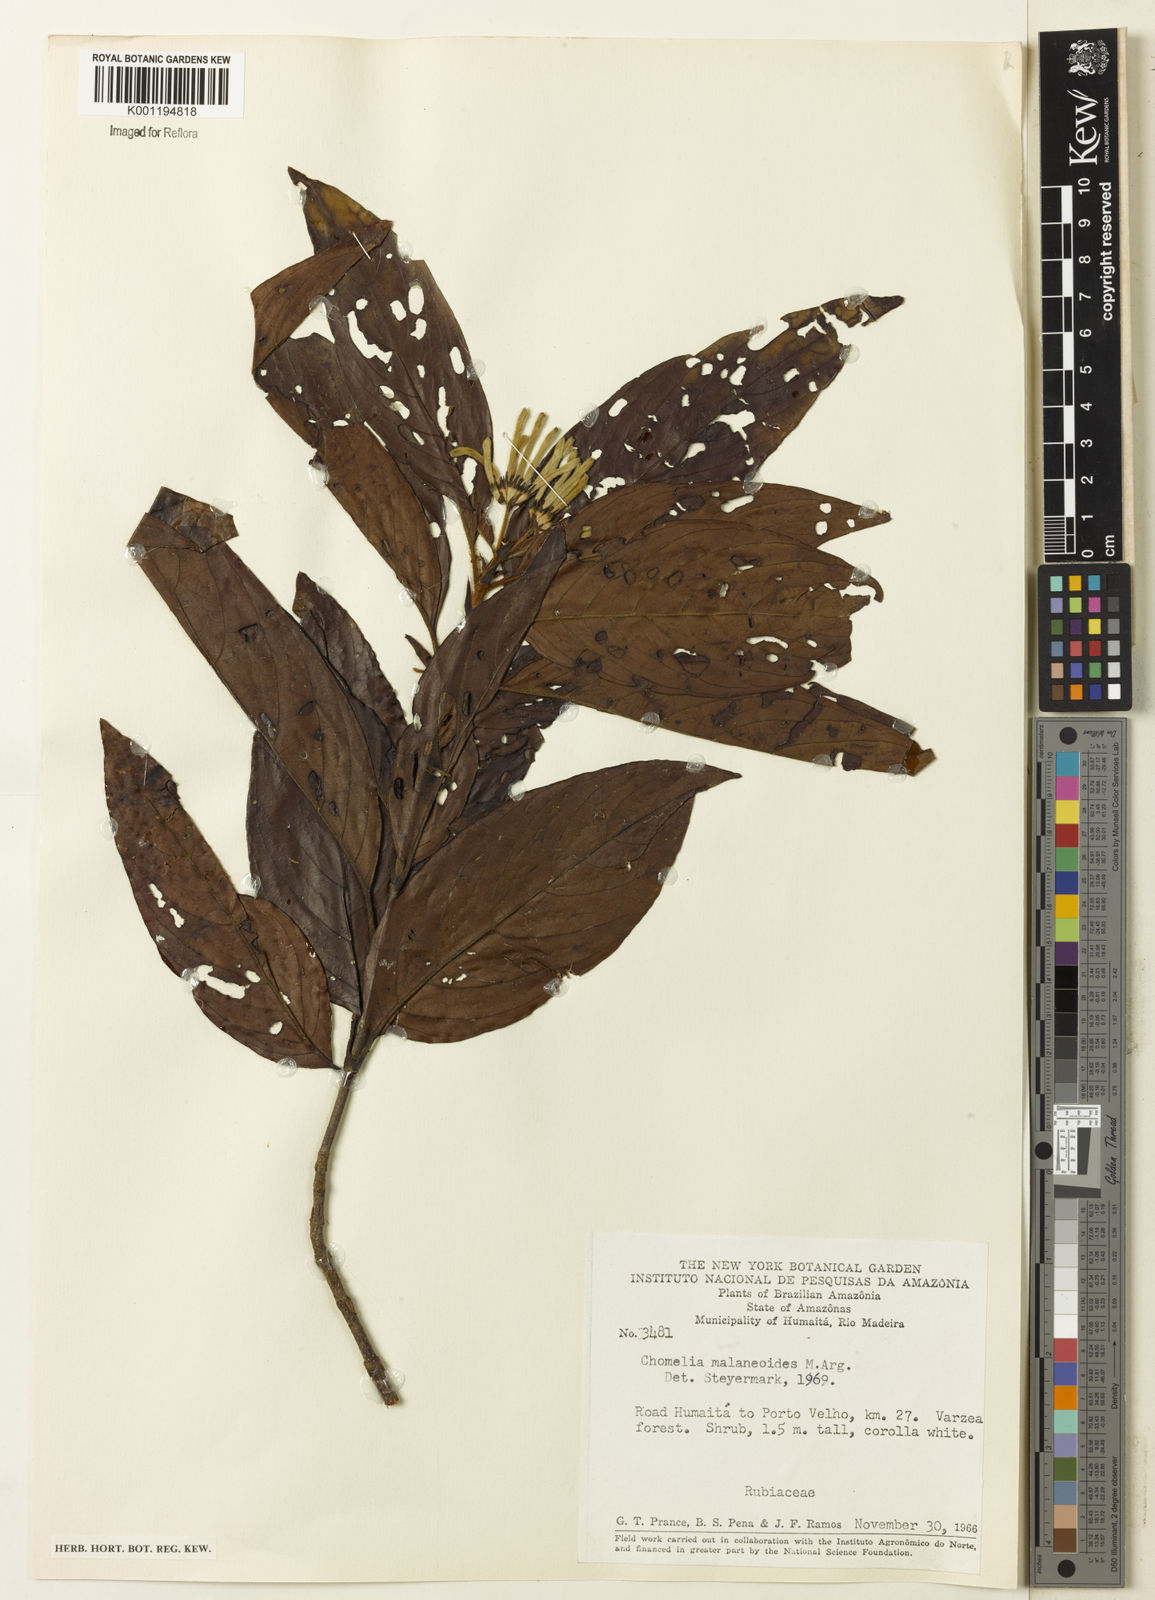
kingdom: Plantae
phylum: Tracheophyta
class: Magnoliopsida
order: Gentianales
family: Rubiaceae
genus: Chomelia
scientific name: Chomelia
